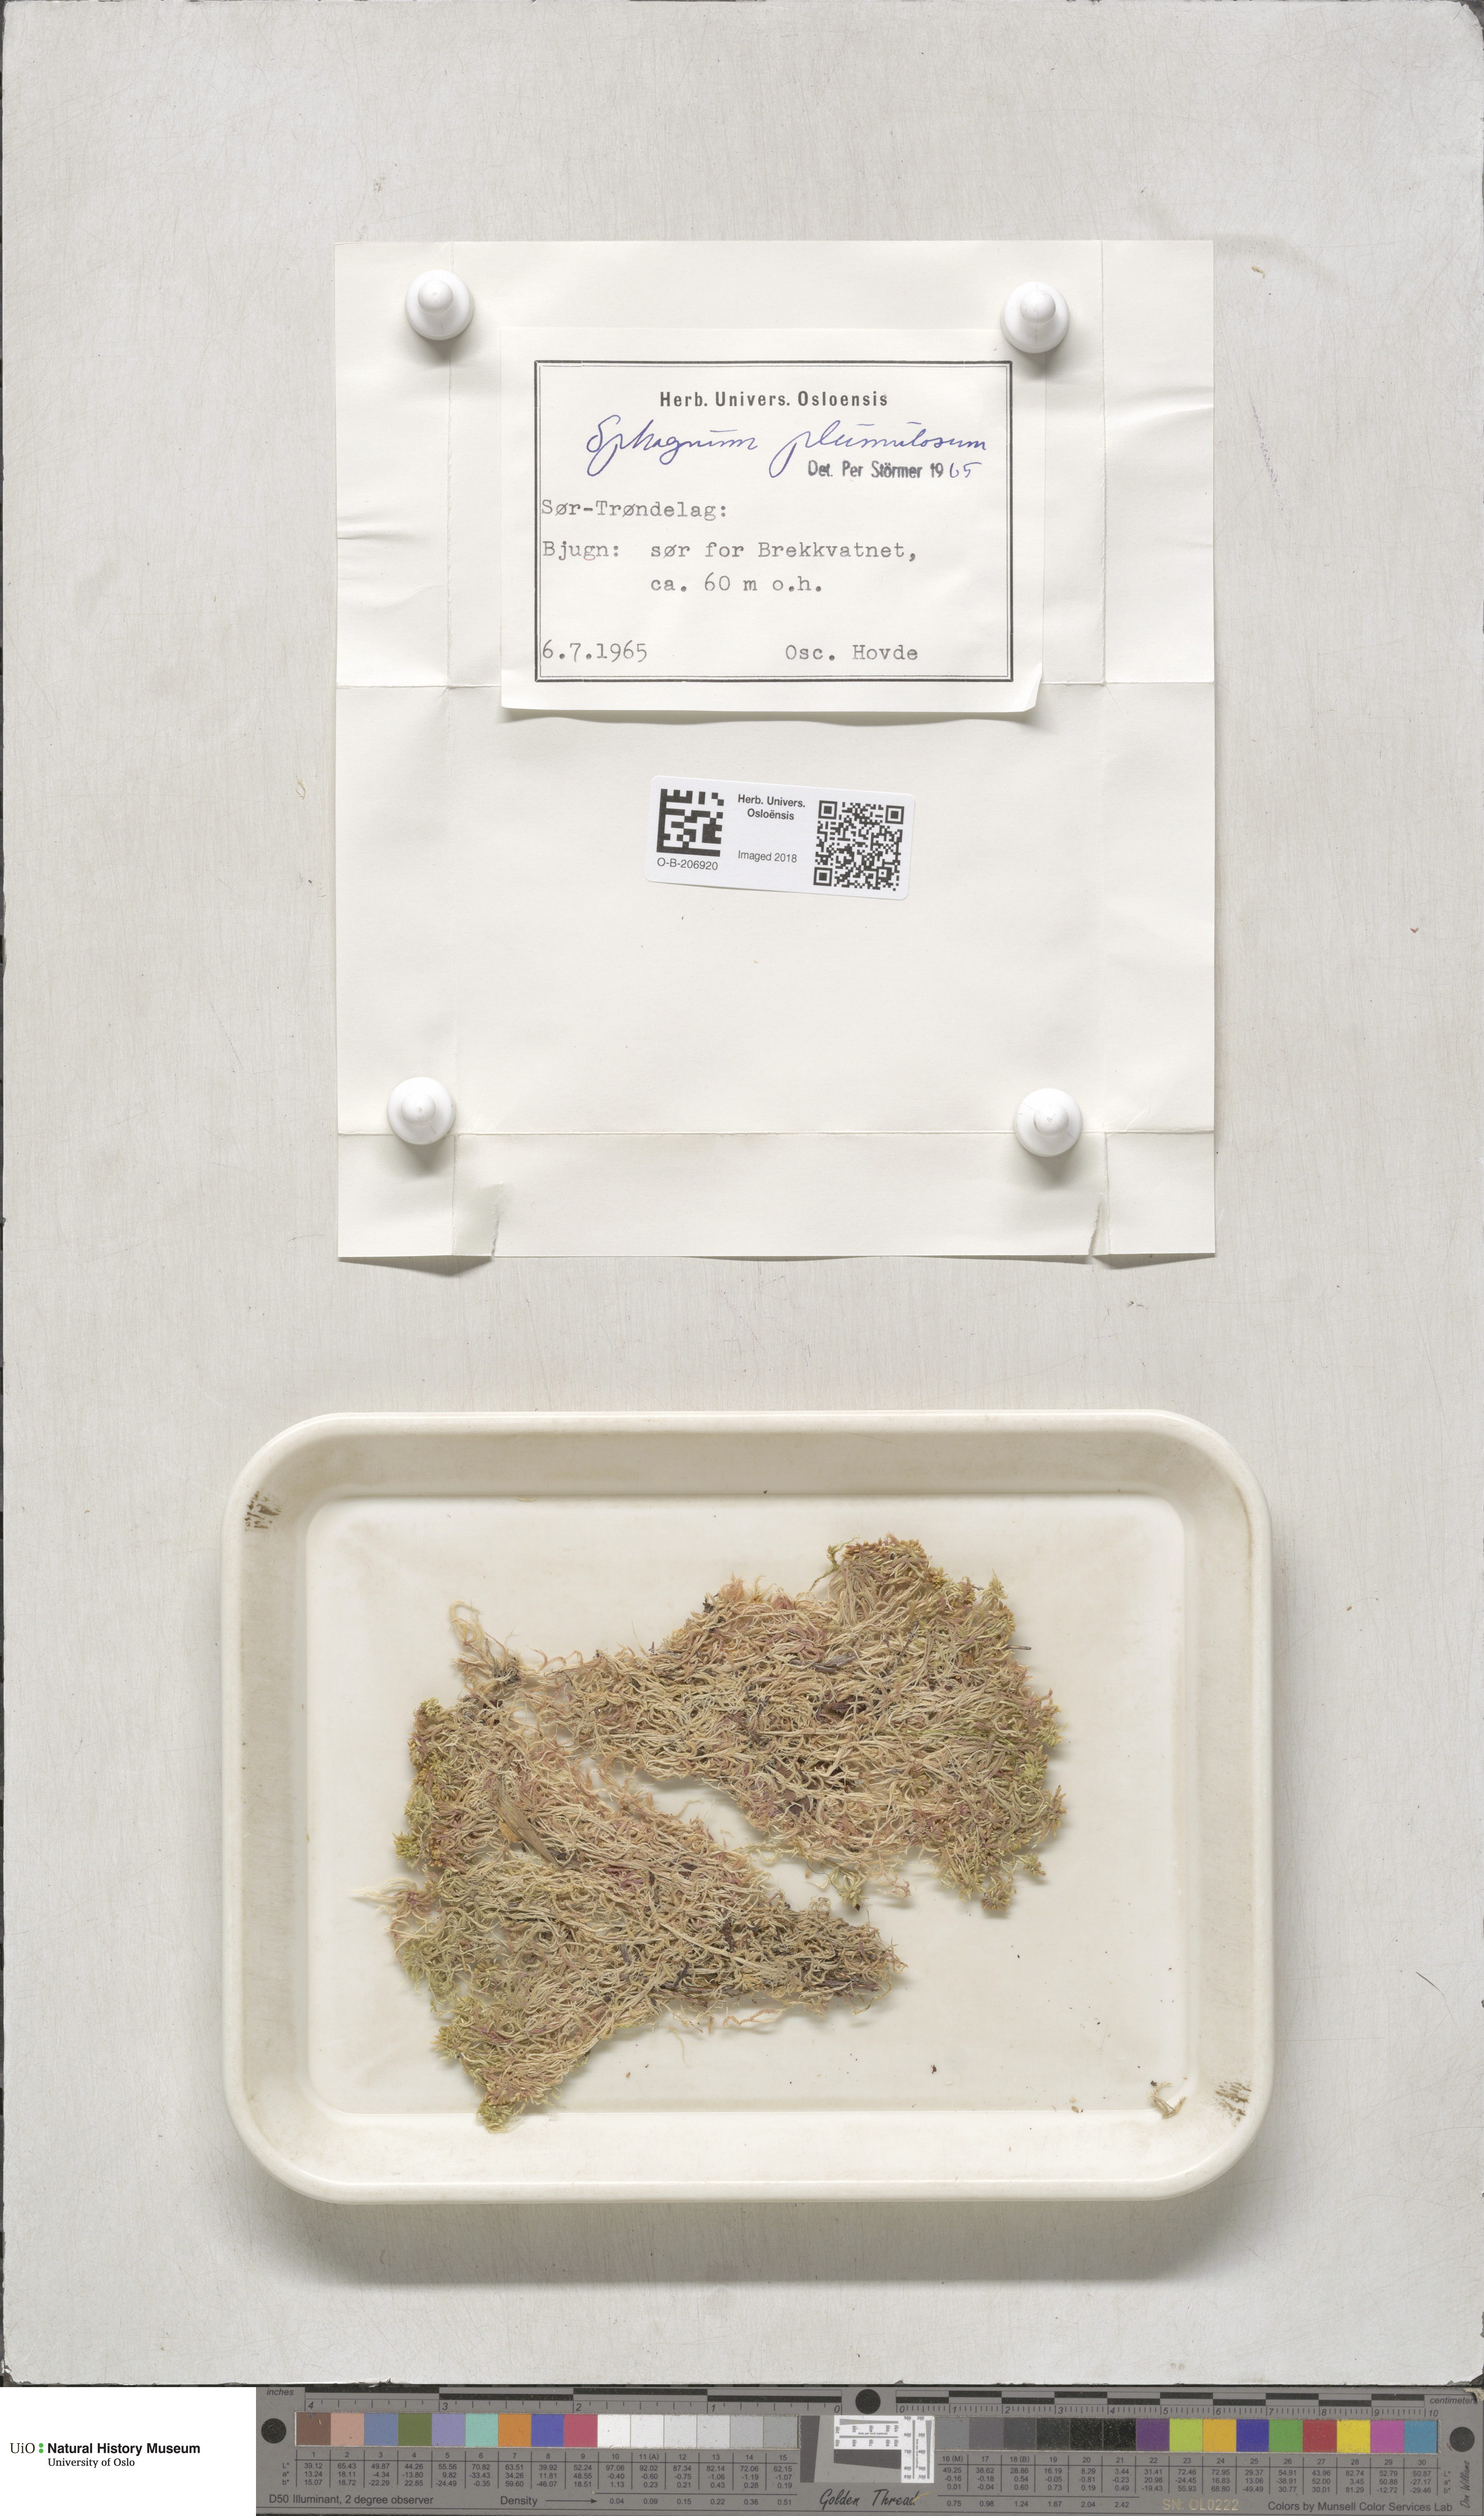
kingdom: Plantae
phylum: Bryophyta
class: Sphagnopsida
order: Sphagnales
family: Sphagnaceae
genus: Sphagnum
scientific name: Sphagnum subnitens
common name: Lustrous bog-moss
